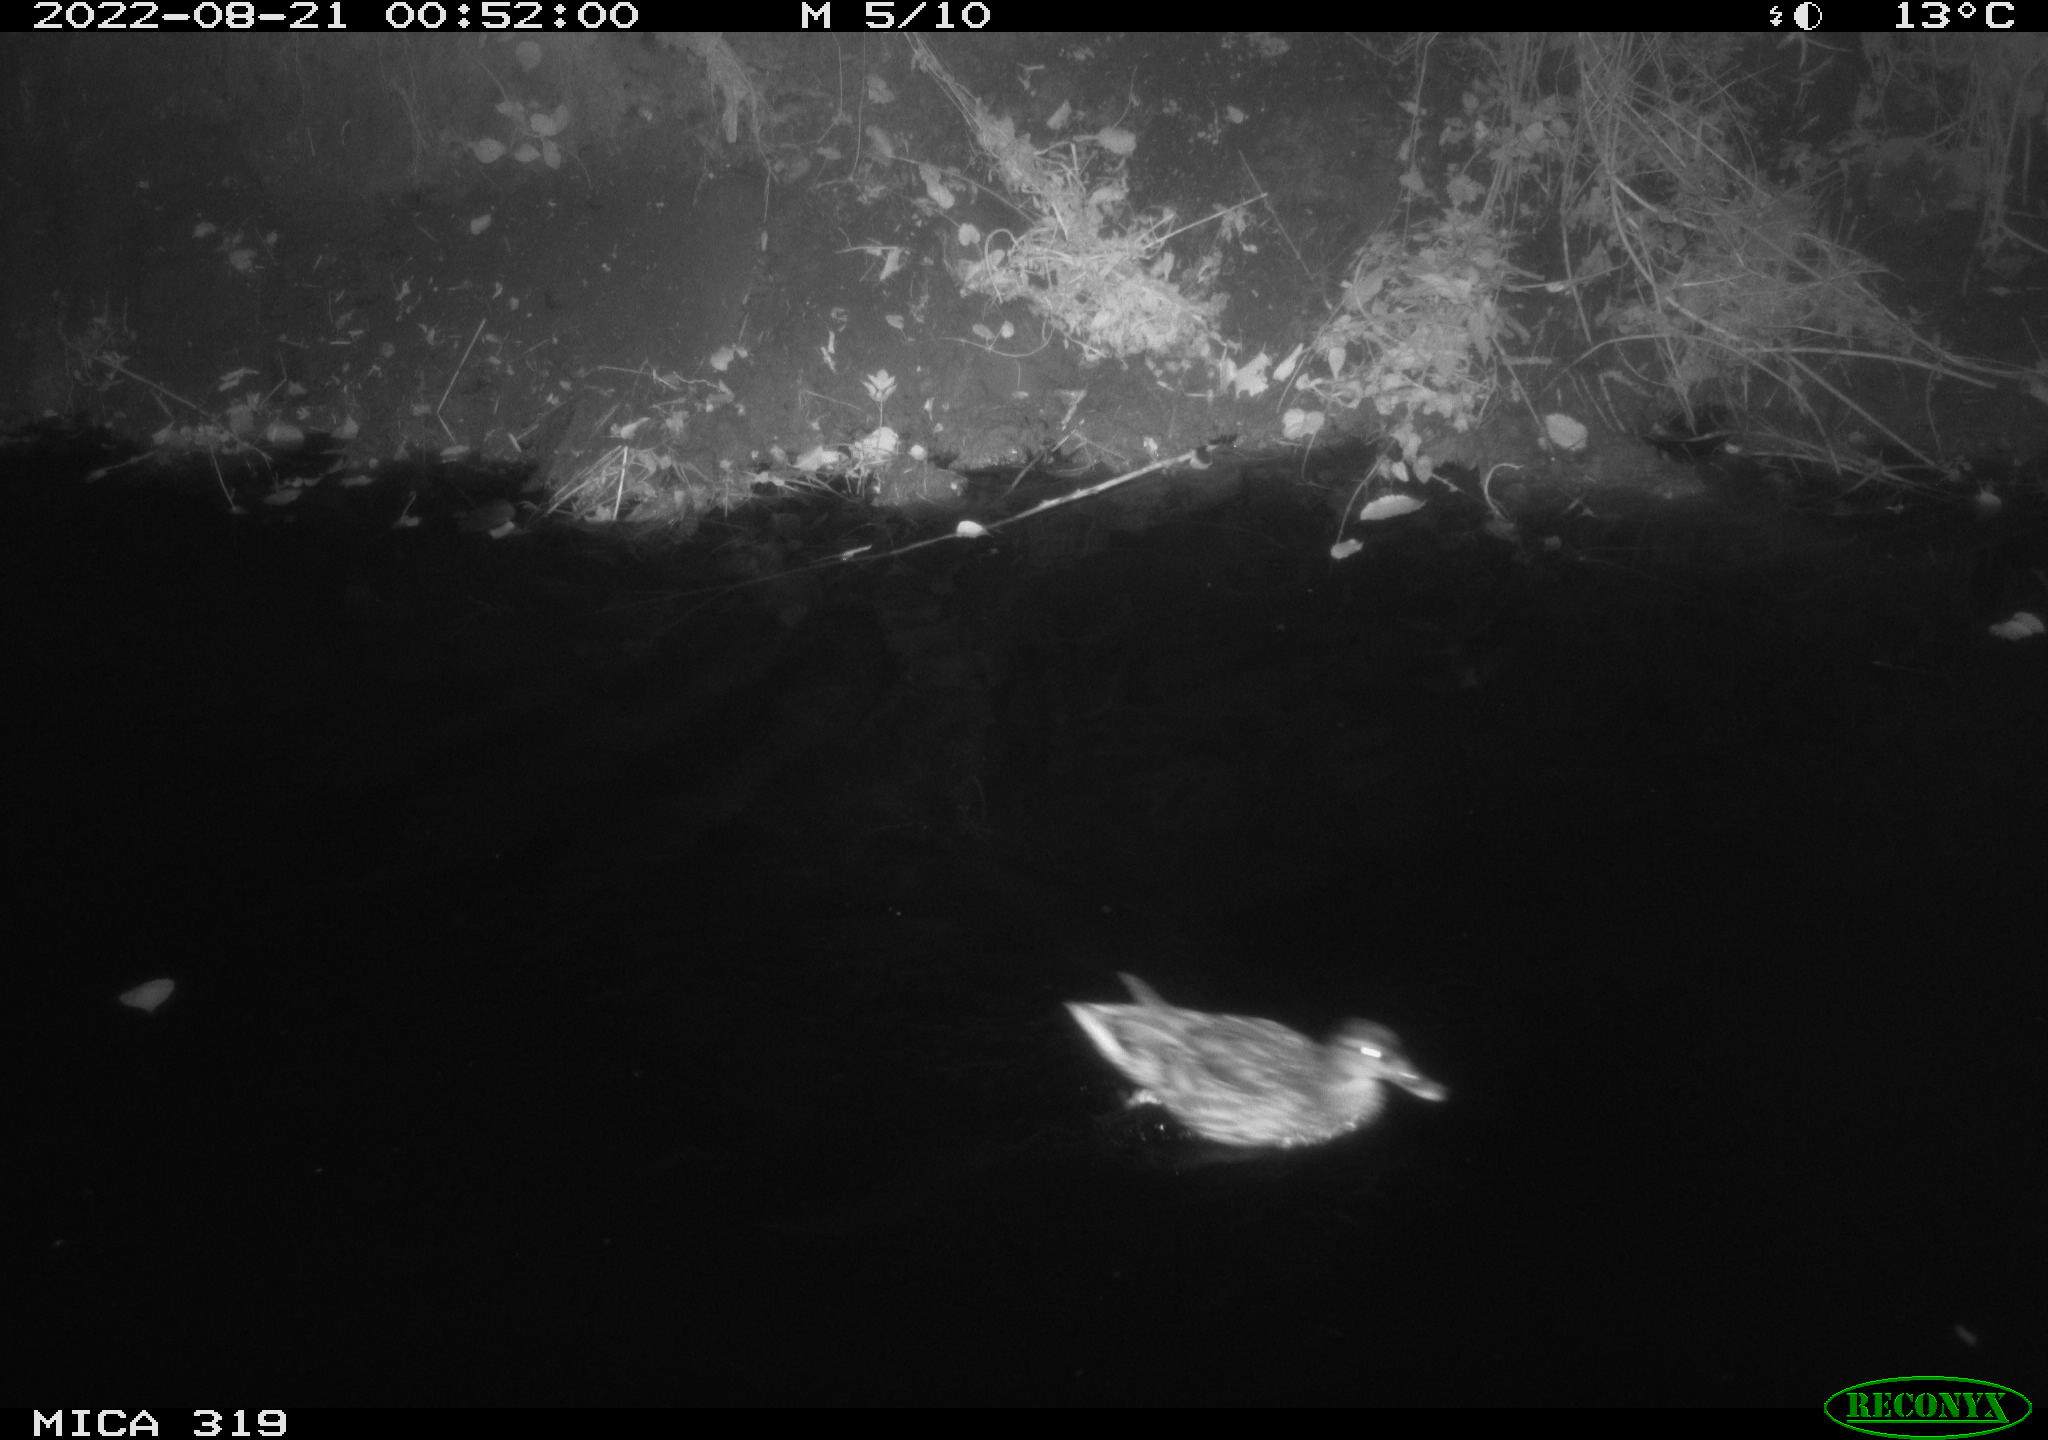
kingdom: Animalia
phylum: Chordata
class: Aves
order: Anseriformes
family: Anatidae
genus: Anas
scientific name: Anas
